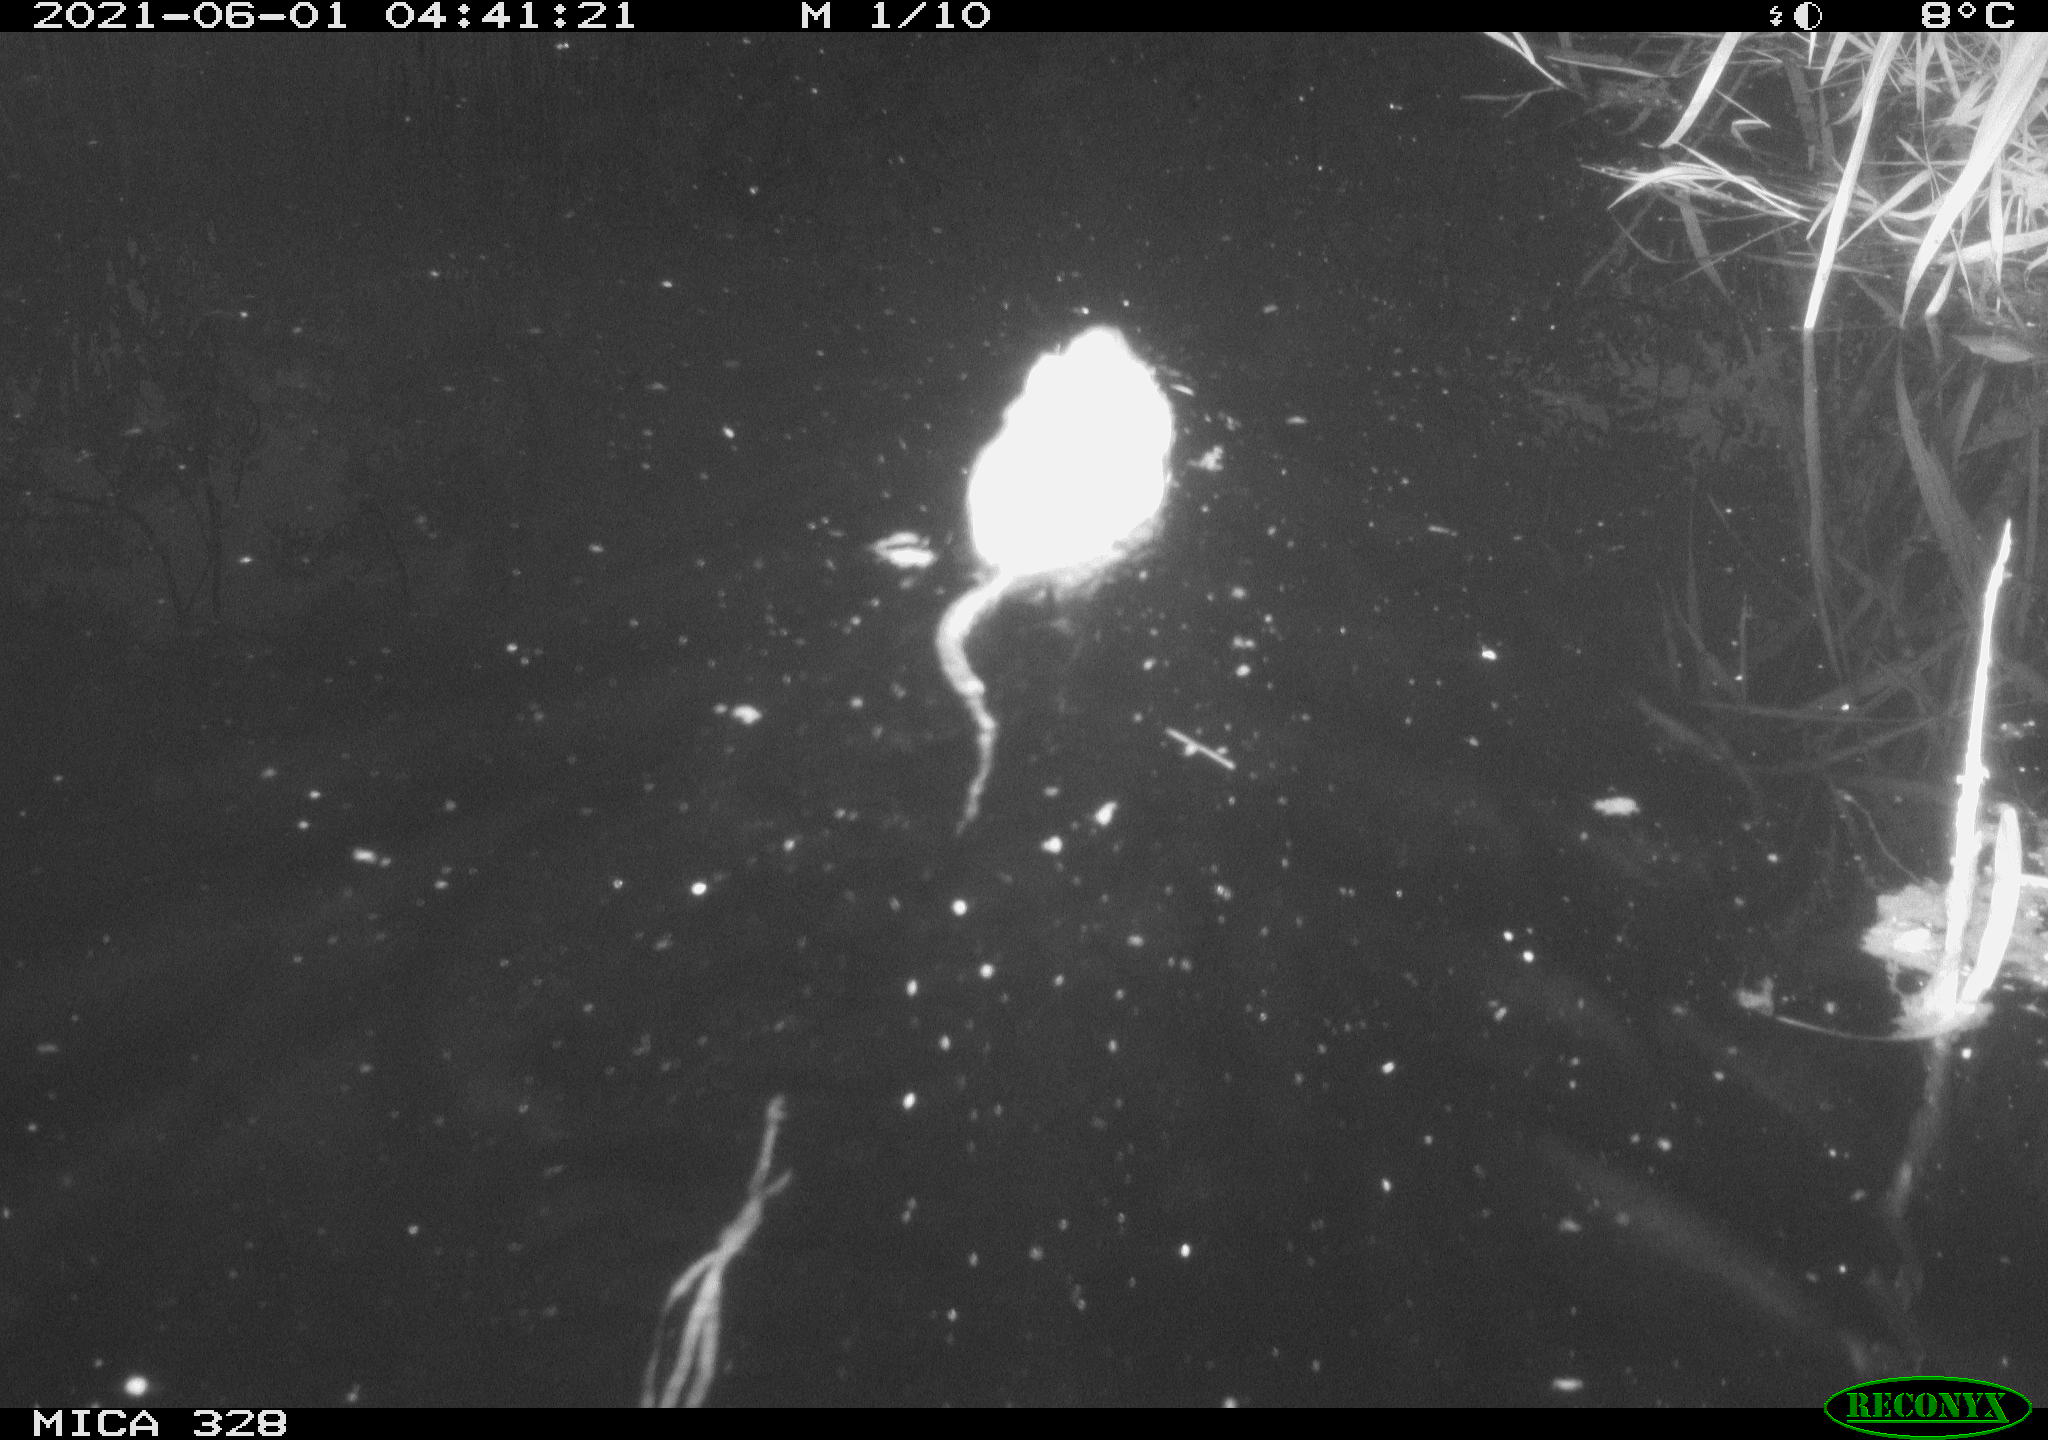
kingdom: Animalia
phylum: Chordata
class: Mammalia
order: Rodentia
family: Cricetidae
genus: Ondatra
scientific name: Ondatra zibethicus
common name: Muskrat
